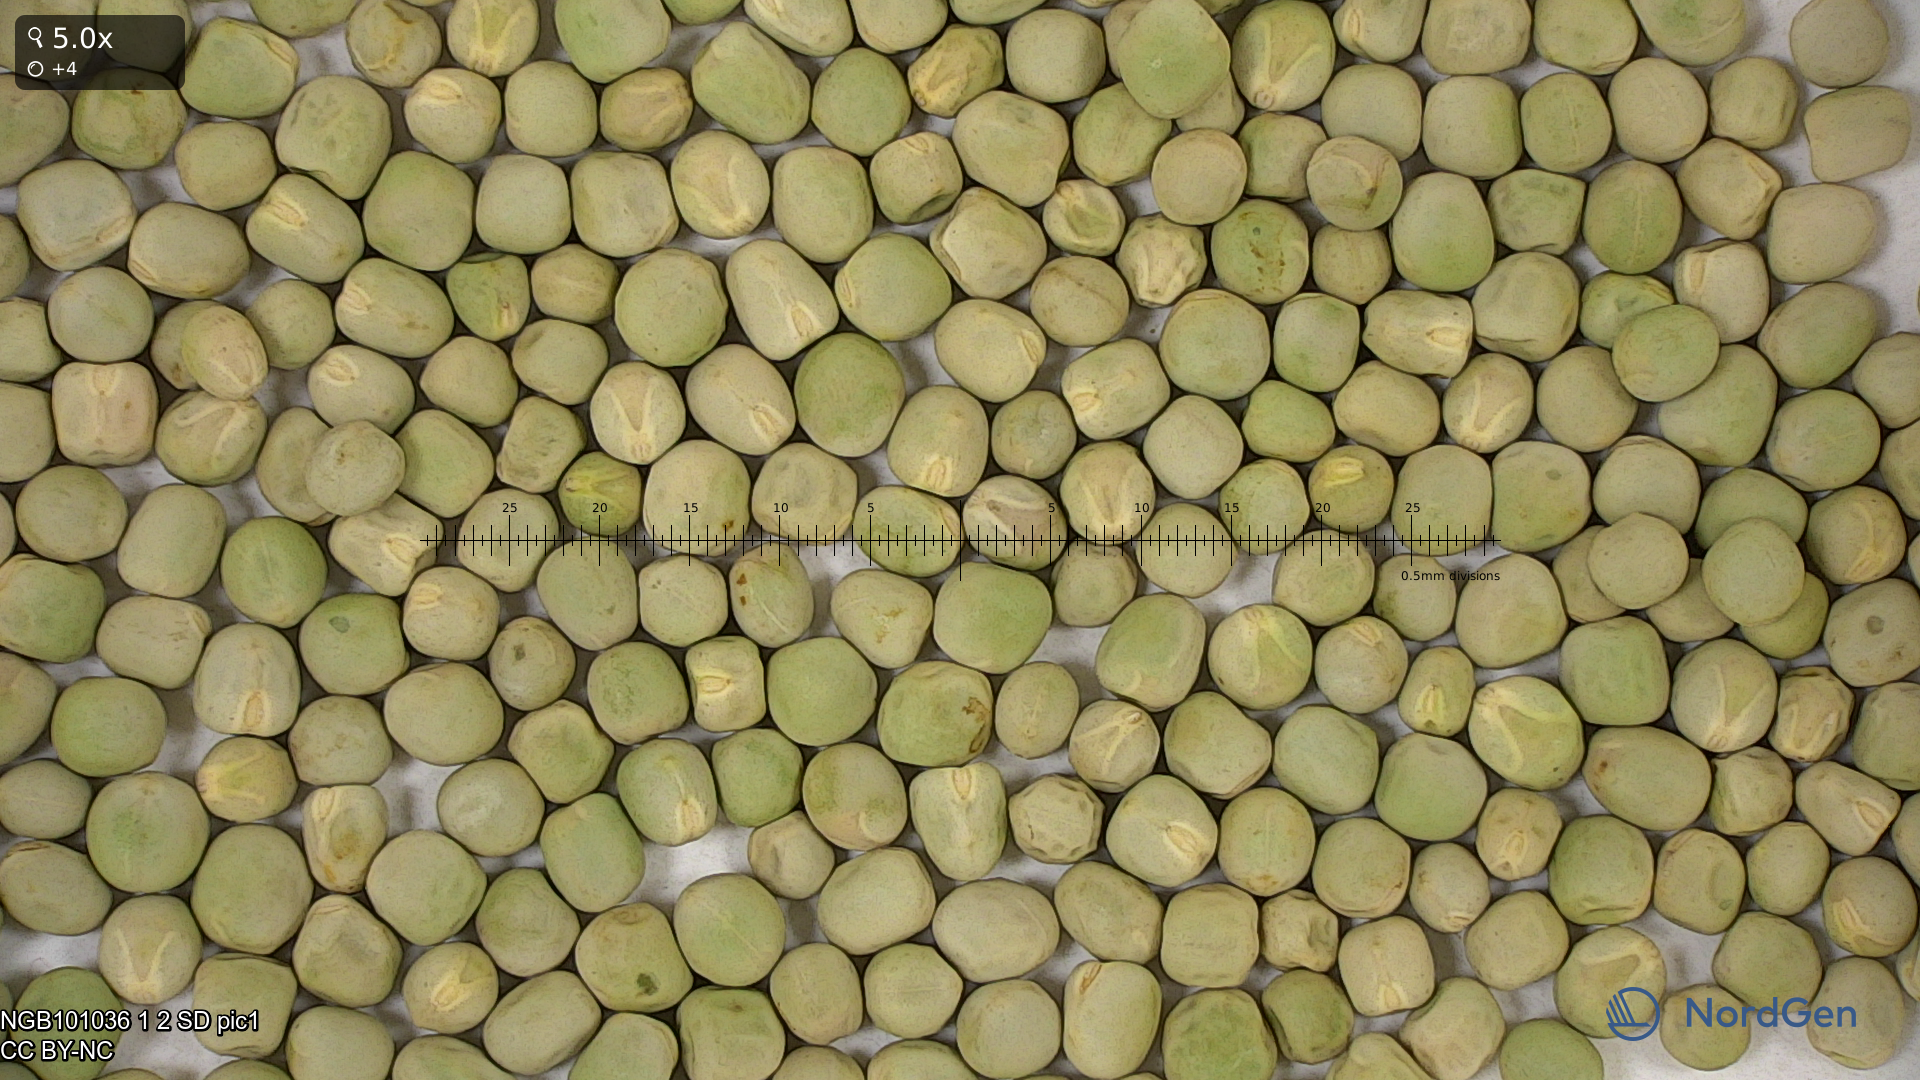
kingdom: Plantae
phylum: Tracheophyta
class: Magnoliopsida
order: Fabales
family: Fabaceae
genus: Lathyrus
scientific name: Lathyrus oleraceus
